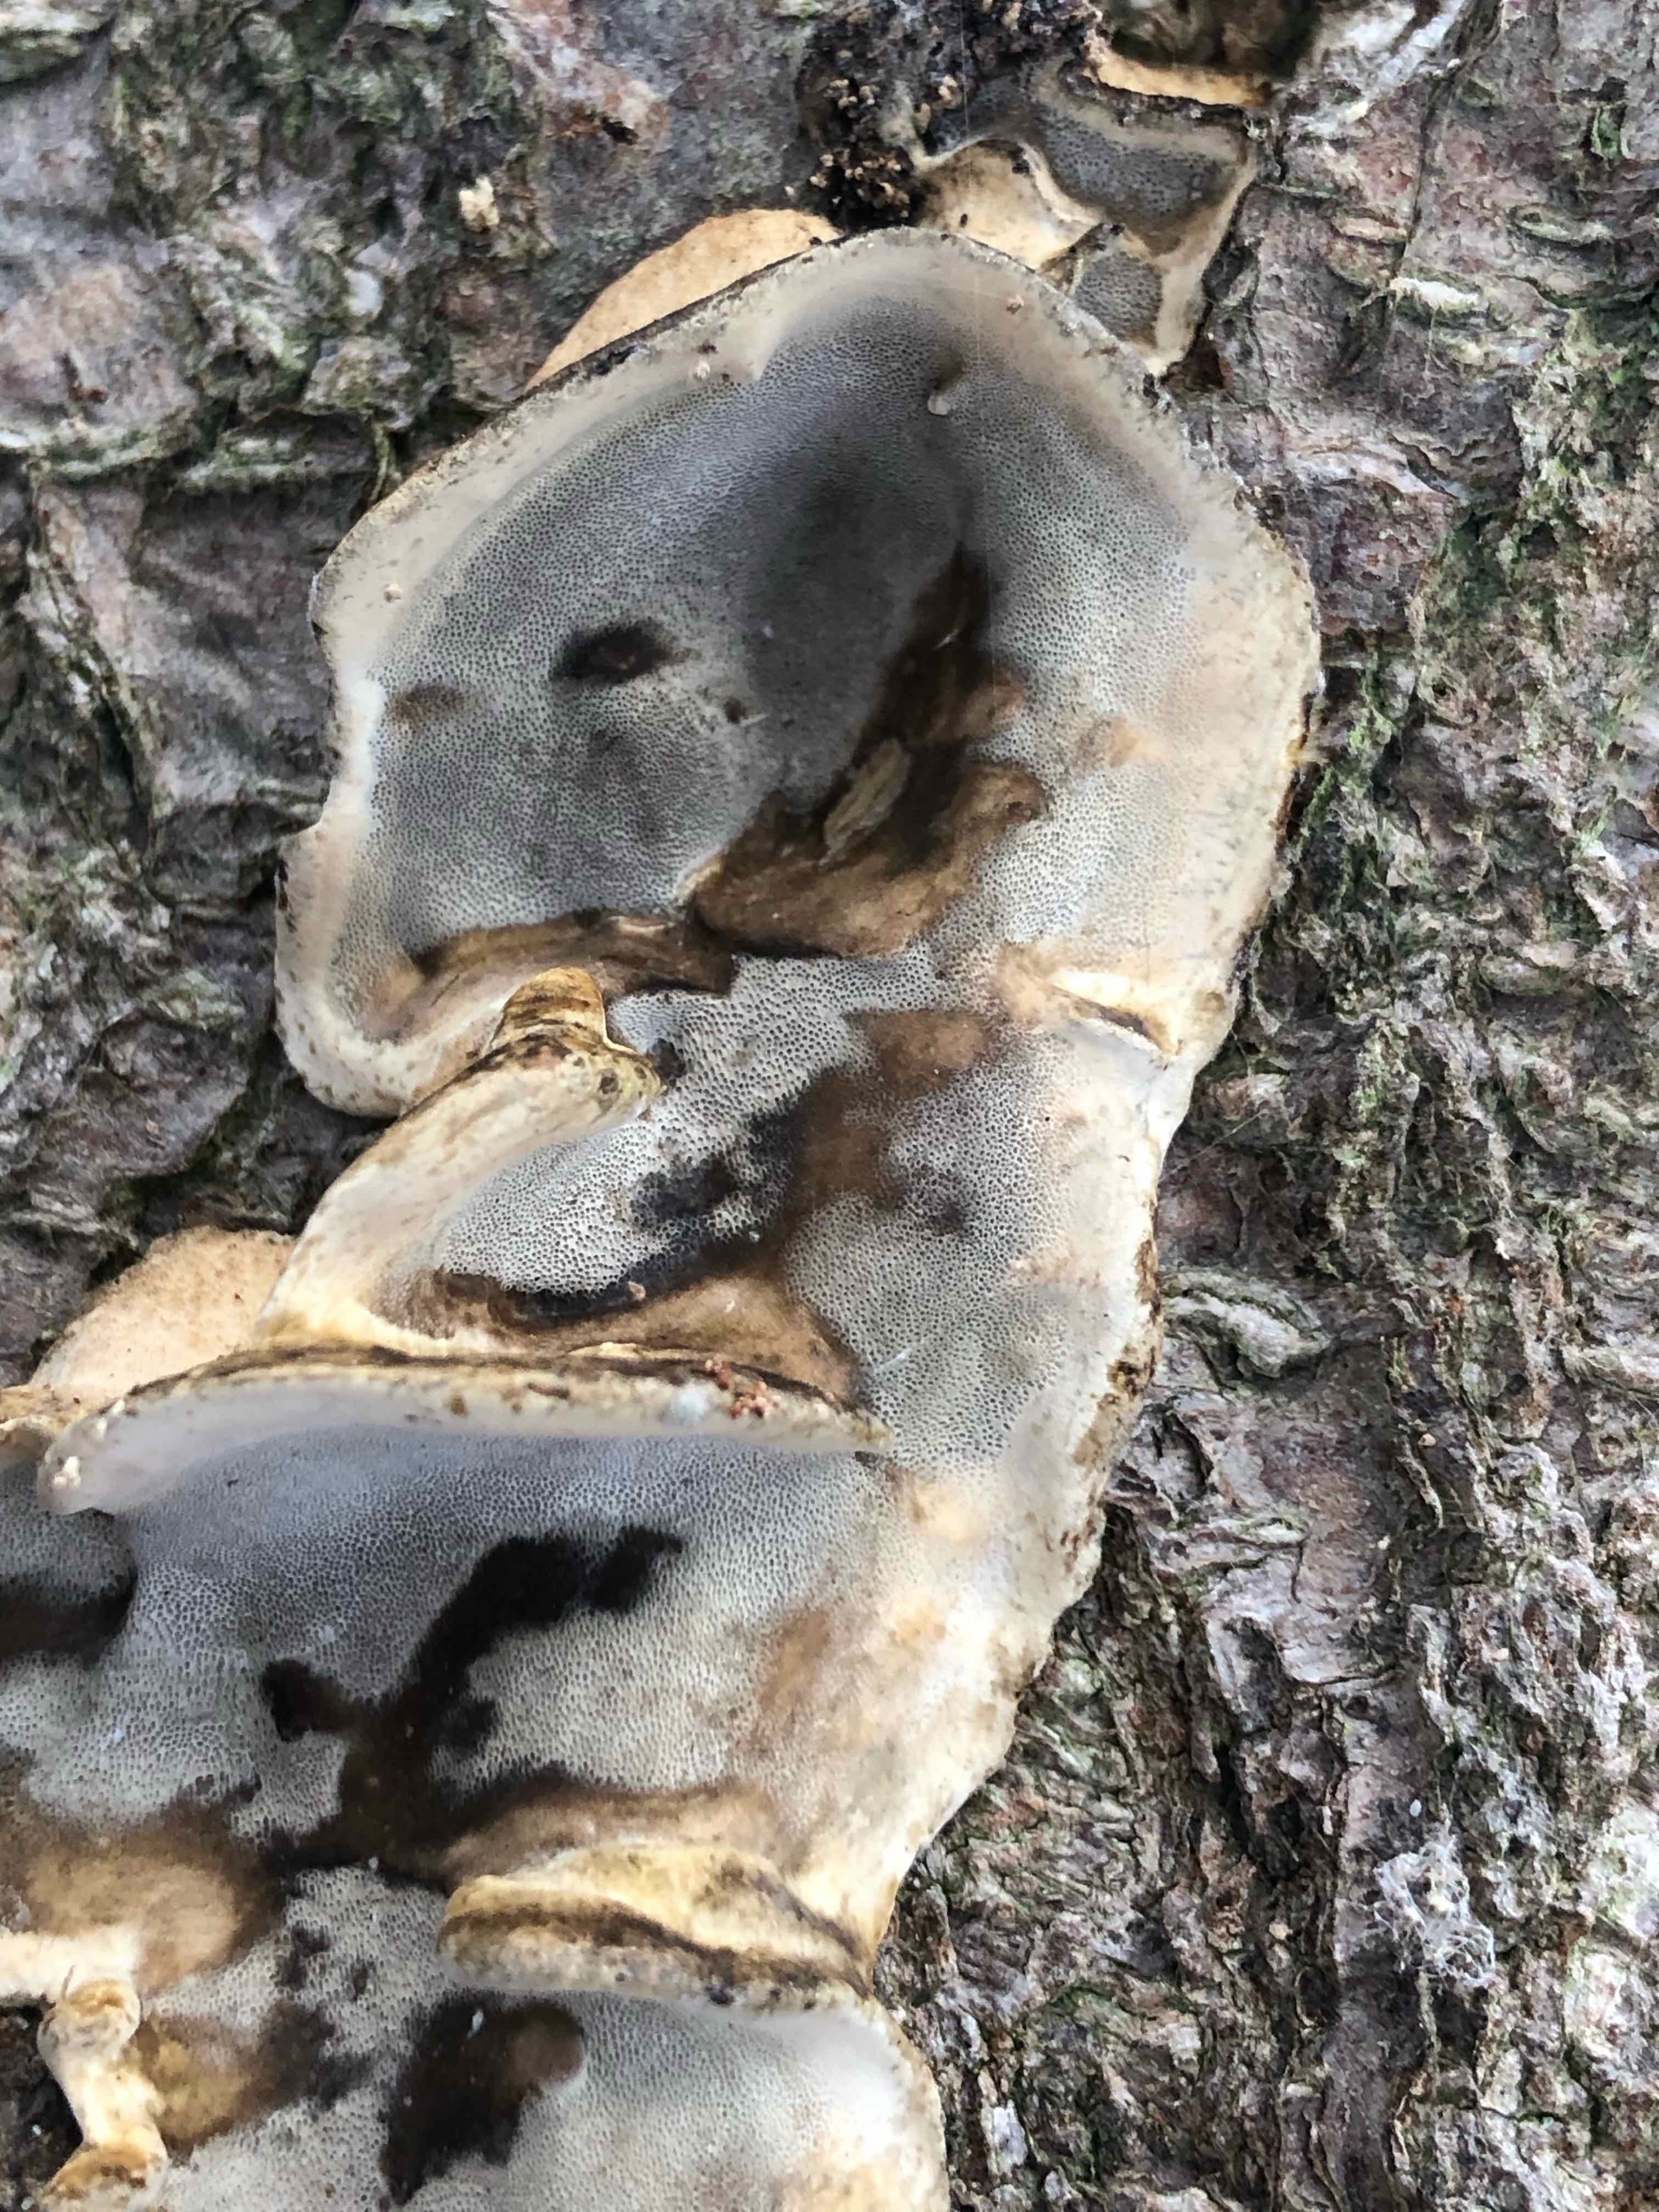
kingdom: Fungi
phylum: Basidiomycota
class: Agaricomycetes
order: Polyporales
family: Phanerochaetaceae
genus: Bjerkandera
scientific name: Bjerkandera adusta
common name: sveden sodporesvamp
